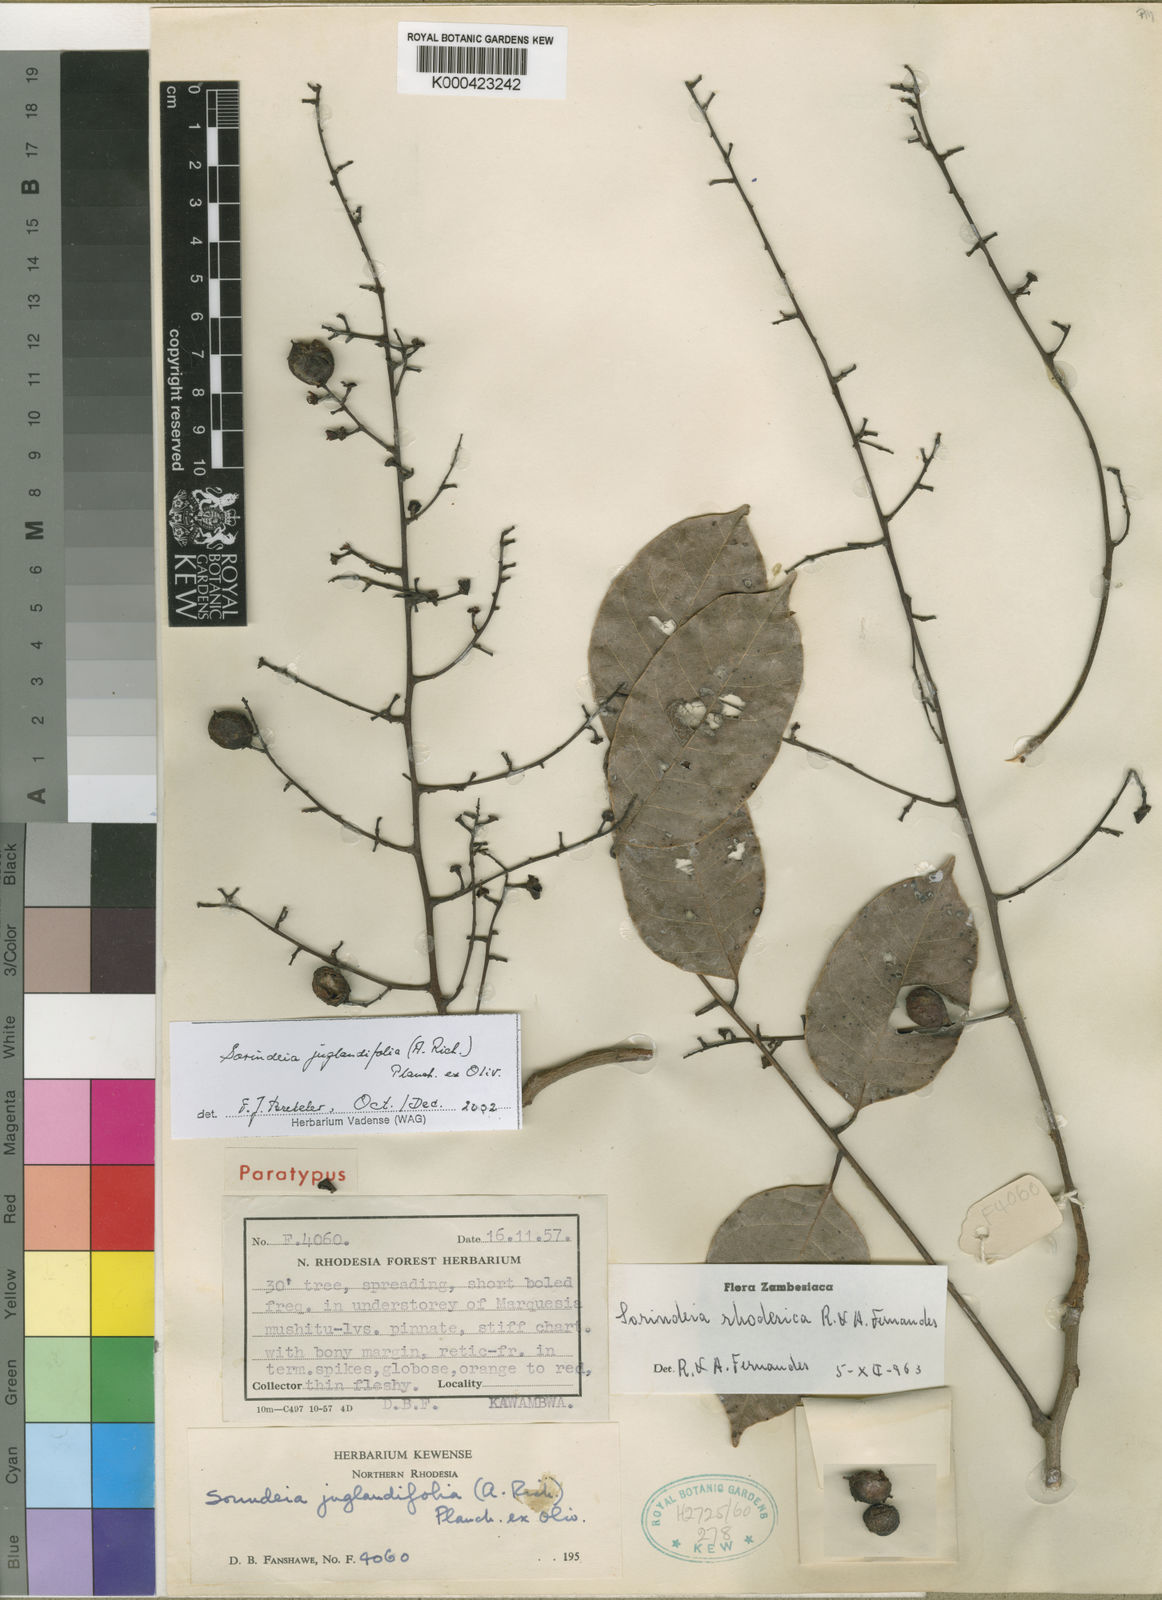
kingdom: Plantae
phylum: Tracheophyta
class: Magnoliopsida
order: Sapindales
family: Anacardiaceae
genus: Sorindeia
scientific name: Sorindeia juglandifolia
